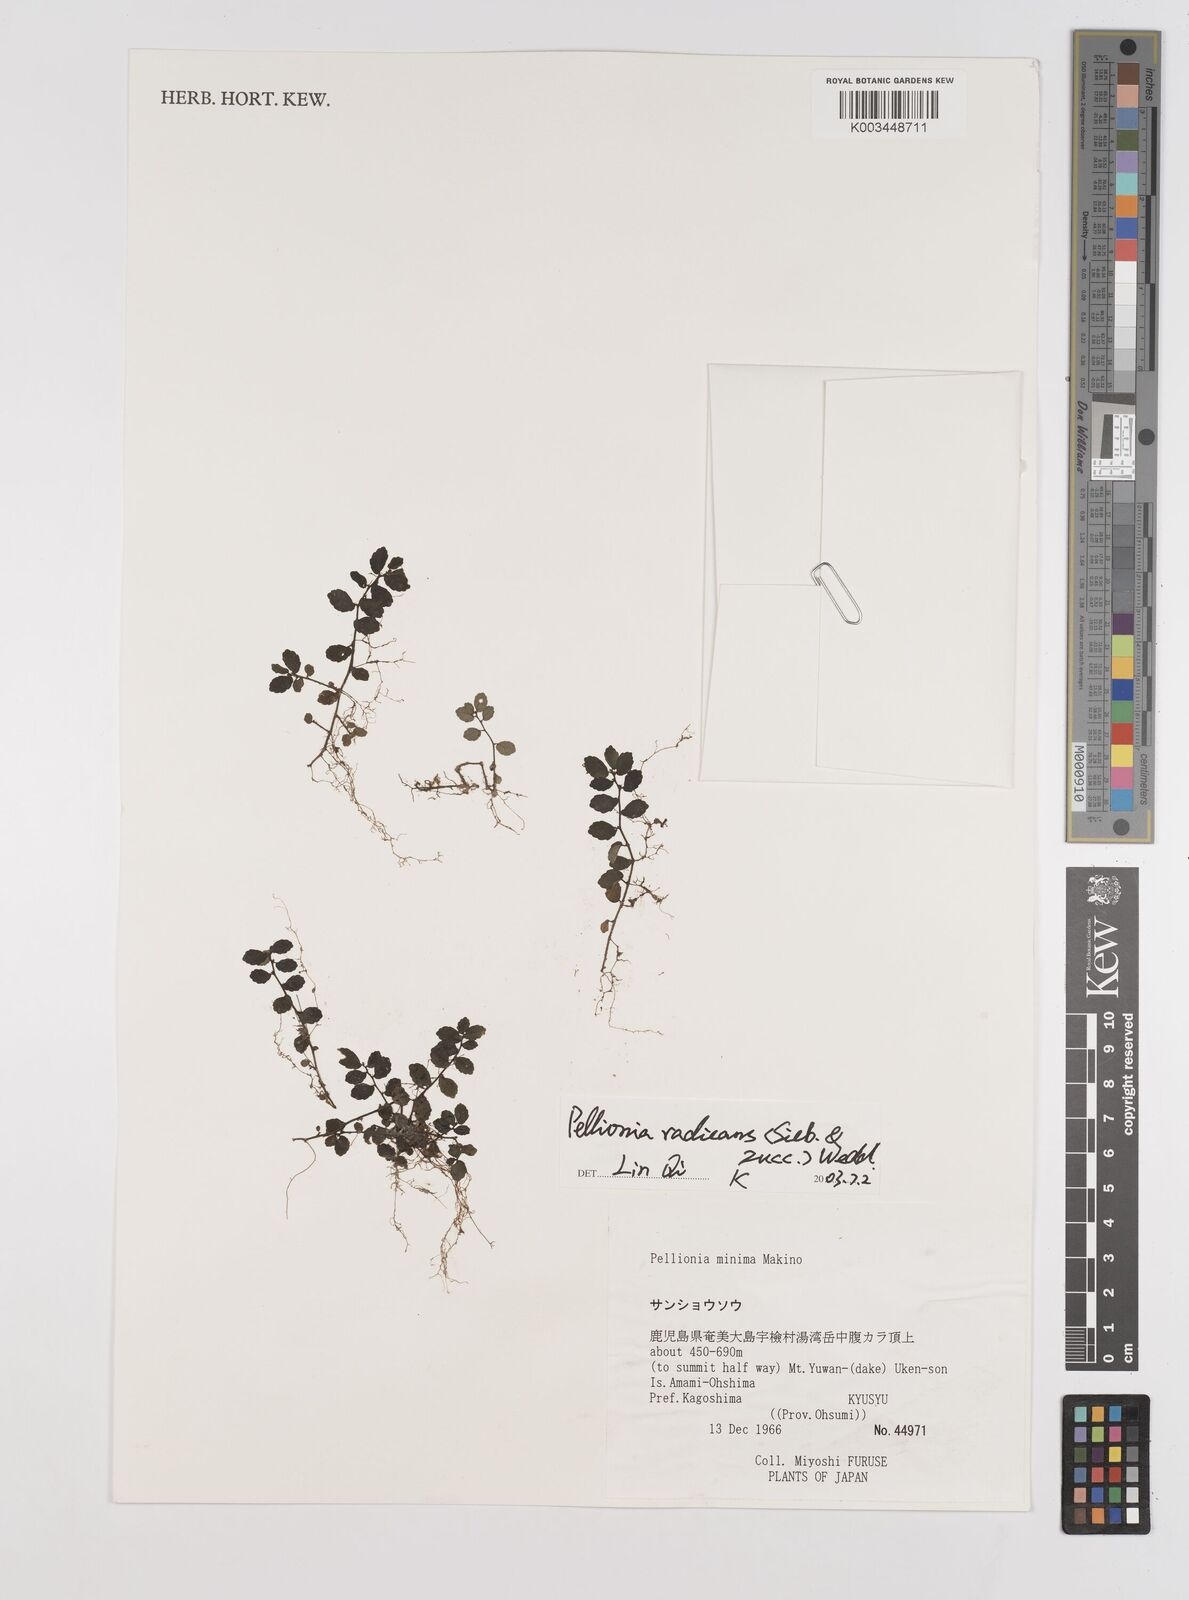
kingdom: Plantae
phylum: Tracheophyta
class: Magnoliopsida
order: Rosales
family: Urticaceae
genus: Elatostema
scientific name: Elatostema radicans
